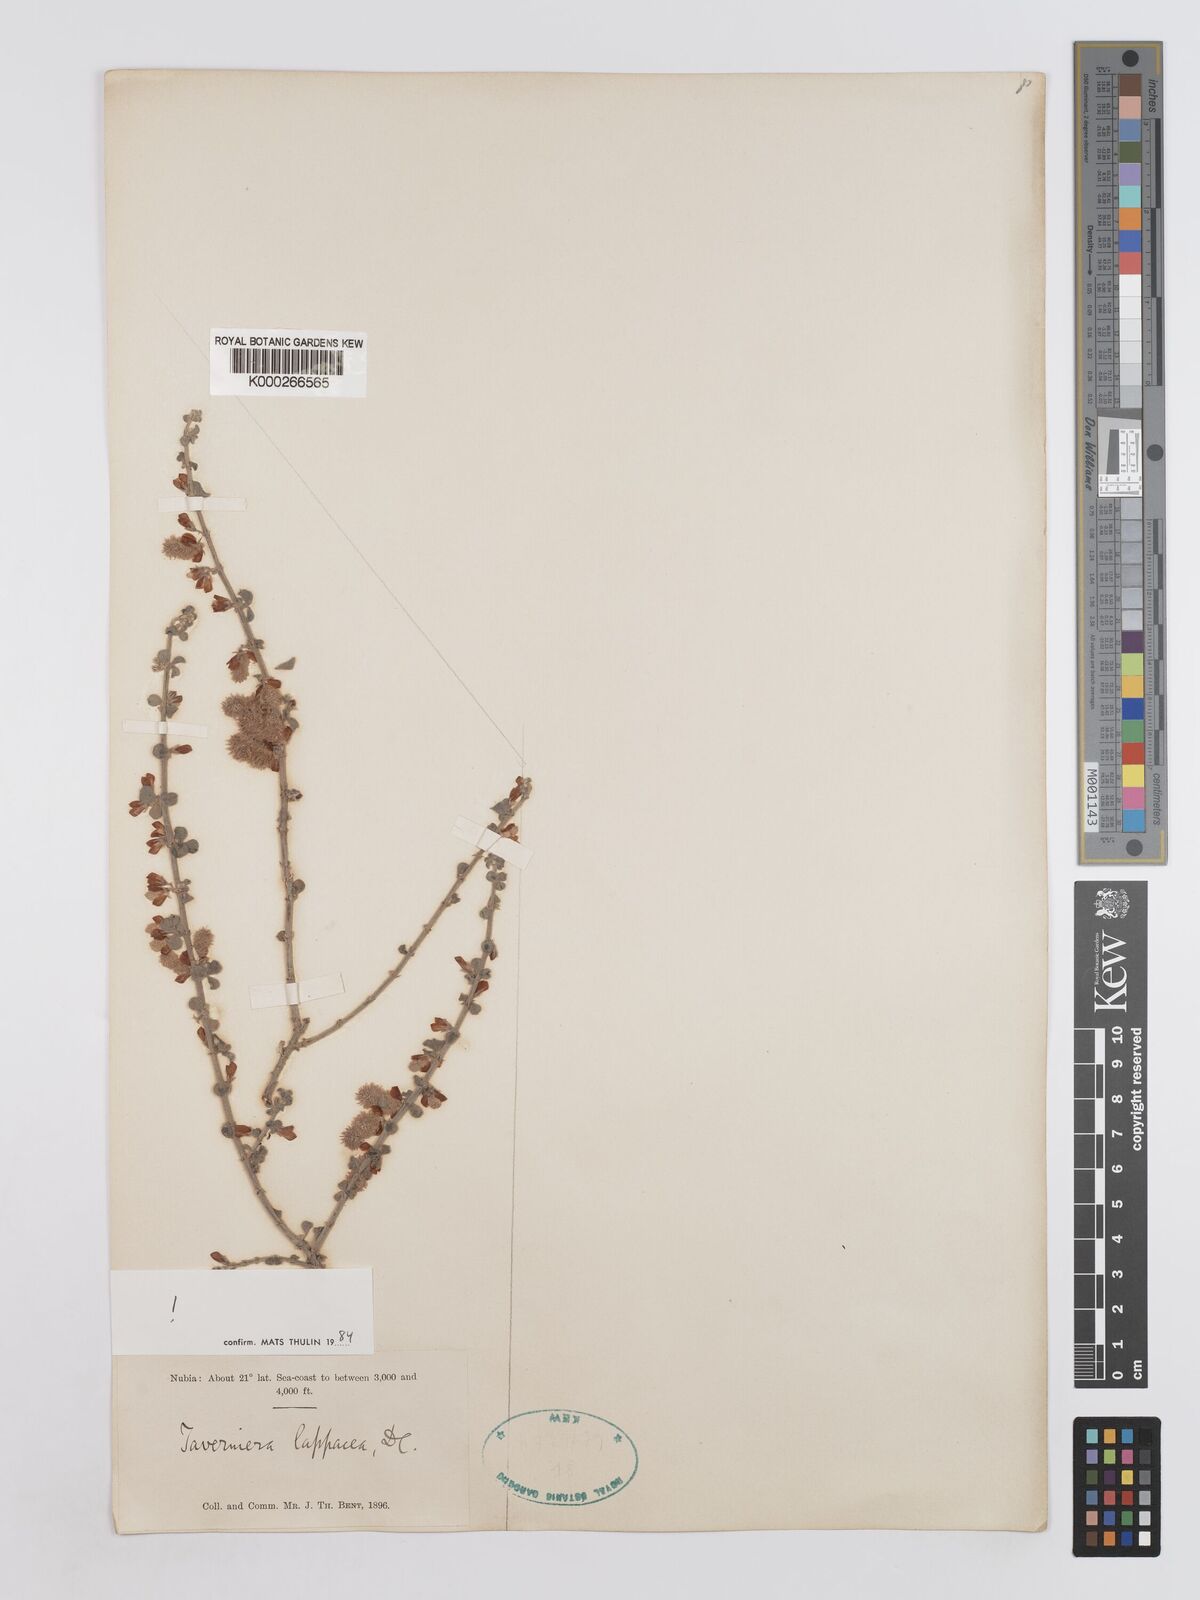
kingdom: Plantae
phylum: Tracheophyta
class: Magnoliopsida
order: Fabales
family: Fabaceae
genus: Taverniera
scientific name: Taverniera lappacea
